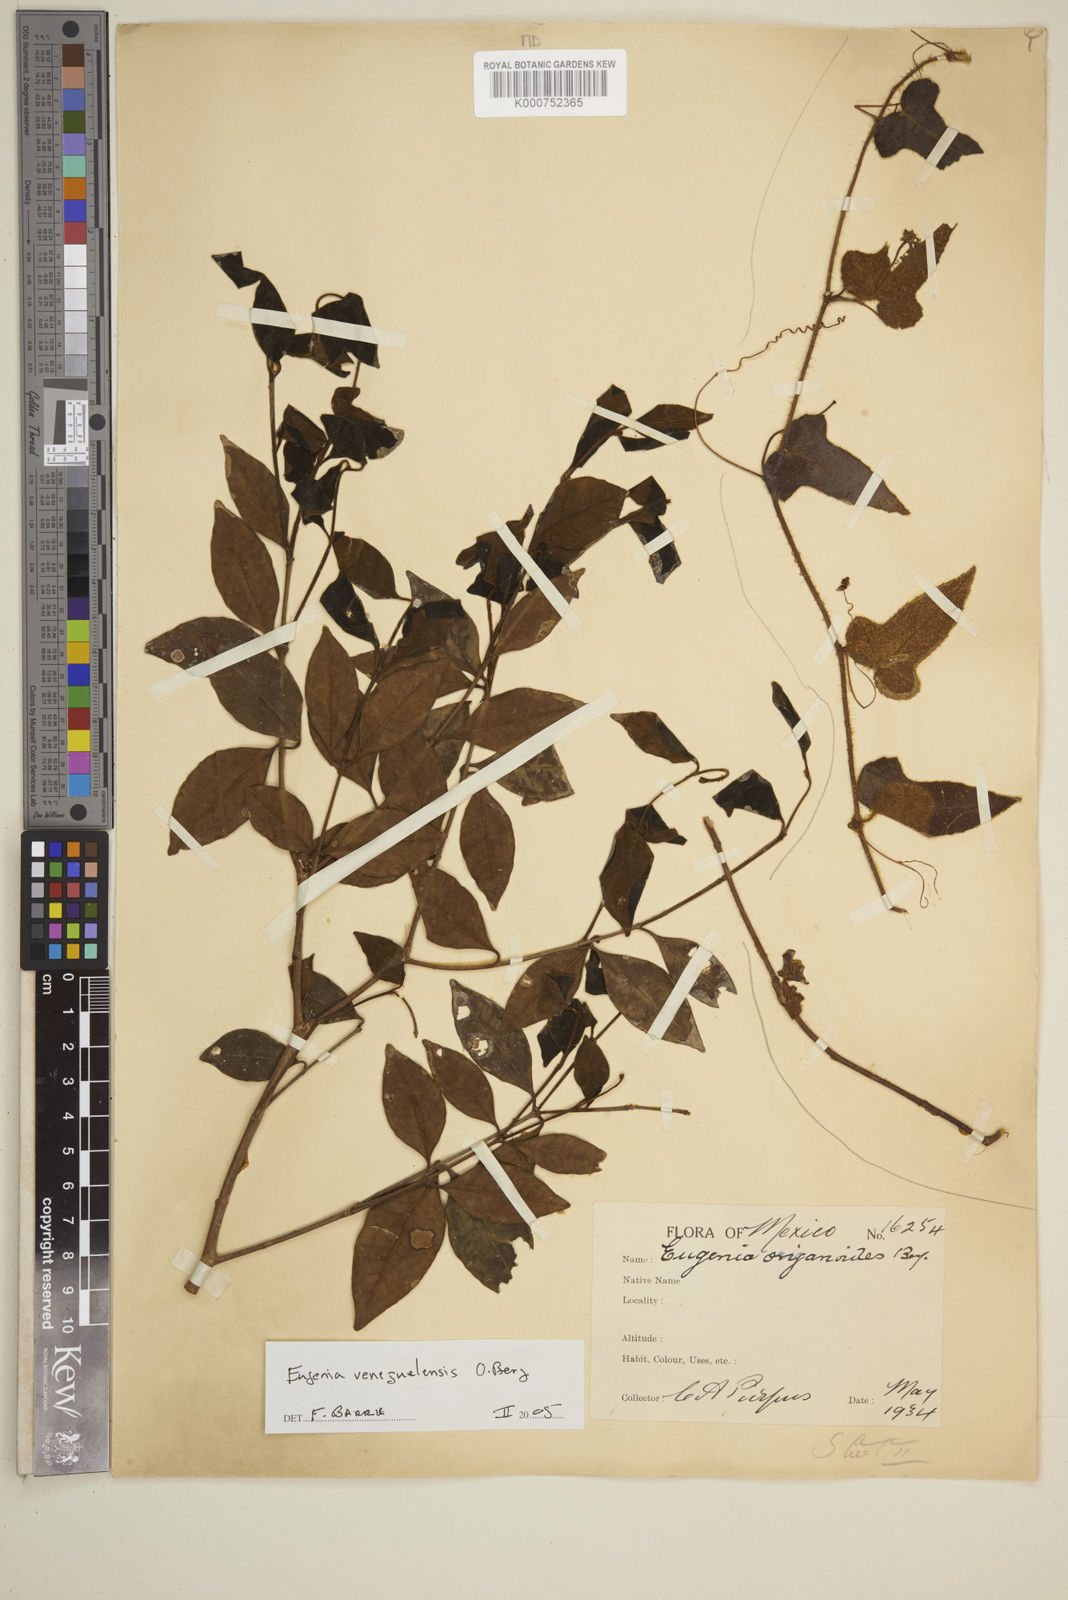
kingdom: Plantae
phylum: Tracheophyta
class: Magnoliopsida
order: Myrtales
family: Myrtaceae
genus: Eugenia
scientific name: Eugenia venezuelensis
